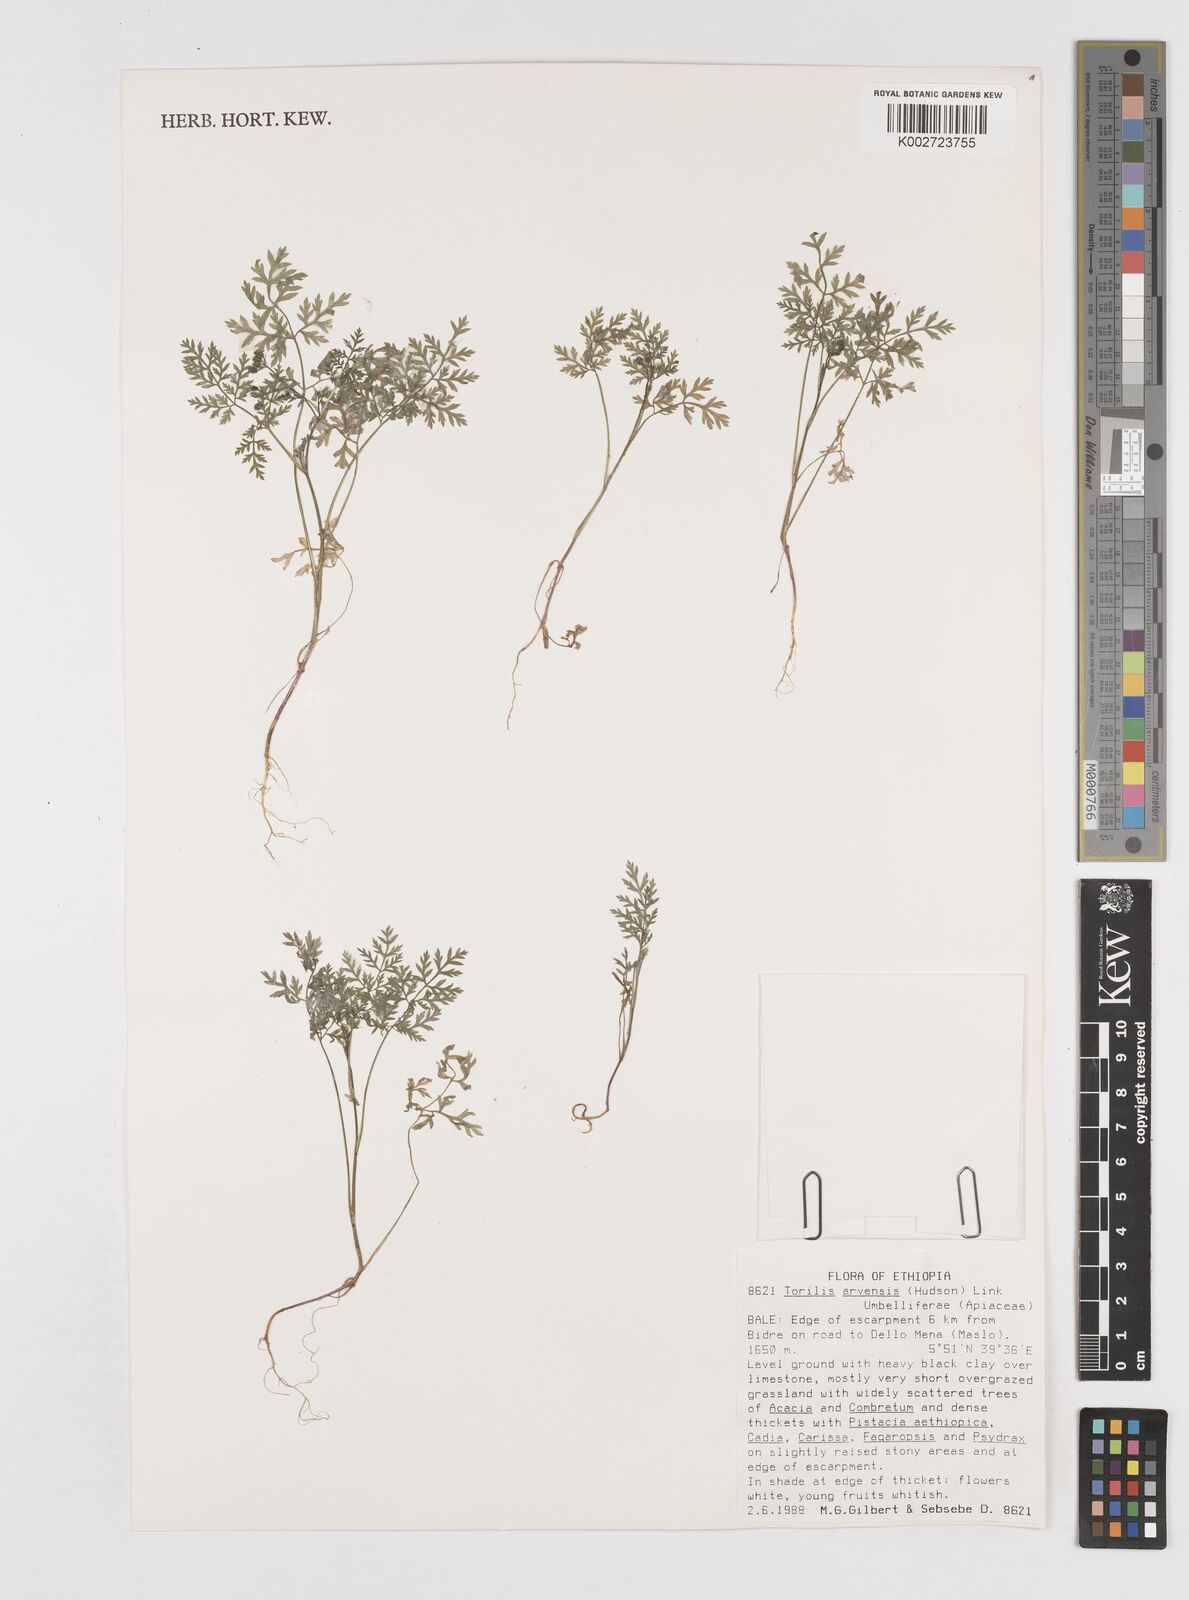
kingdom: Plantae
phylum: Tracheophyta
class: Magnoliopsida
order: Apiales
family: Apiaceae
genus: Torilis
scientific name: Torilis arvensis
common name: Spreading hedge-parsley
